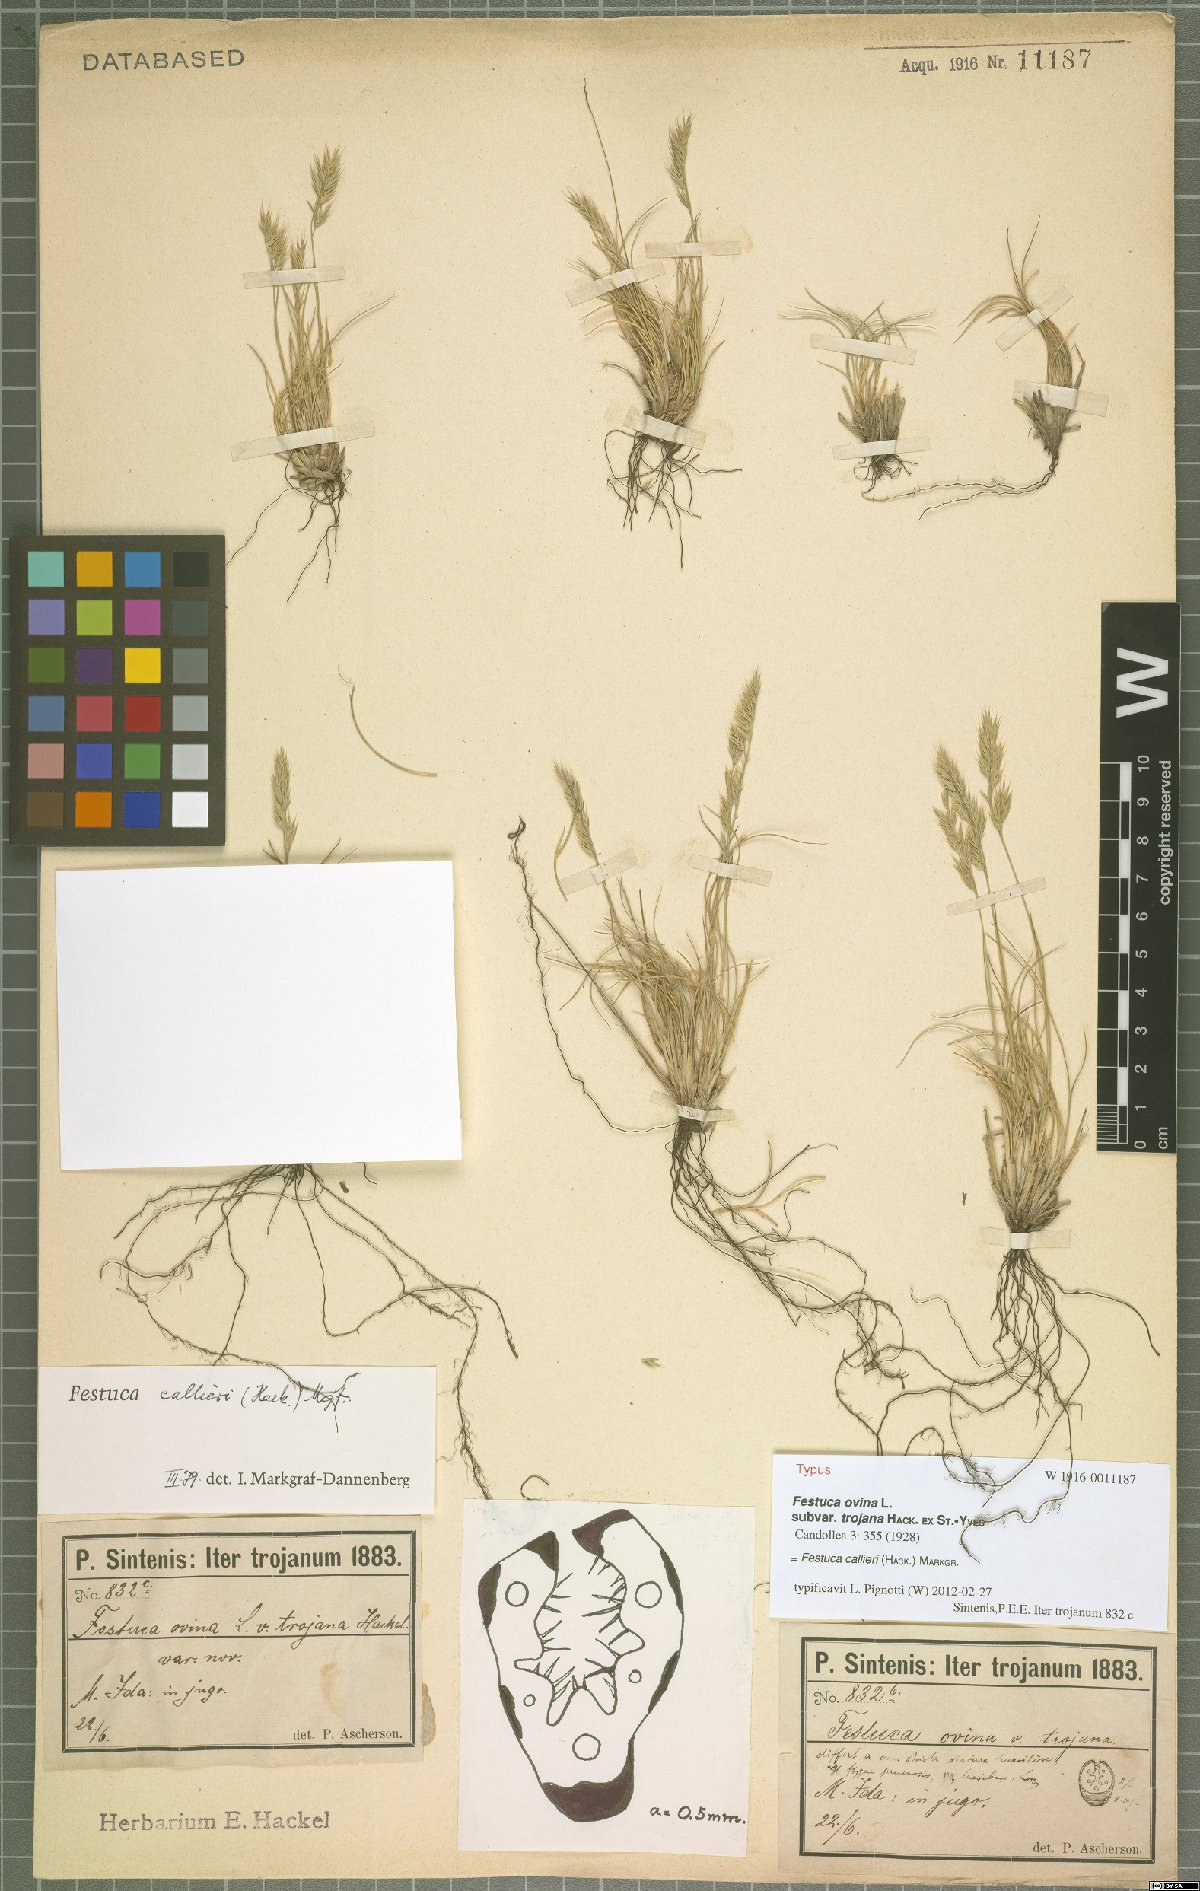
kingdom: Plantae
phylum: Tracheophyta
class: Liliopsida
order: Poales
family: Poaceae
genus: Festuca
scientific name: Festuca callieri
